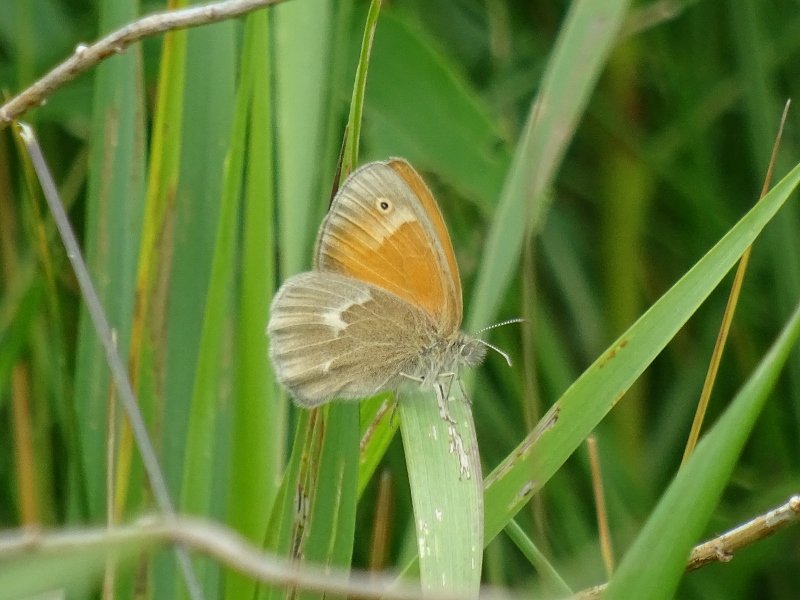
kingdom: Animalia
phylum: Arthropoda
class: Insecta
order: Lepidoptera
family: Nymphalidae
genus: Coenonympha
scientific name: Coenonympha tullia
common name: Large Heath
